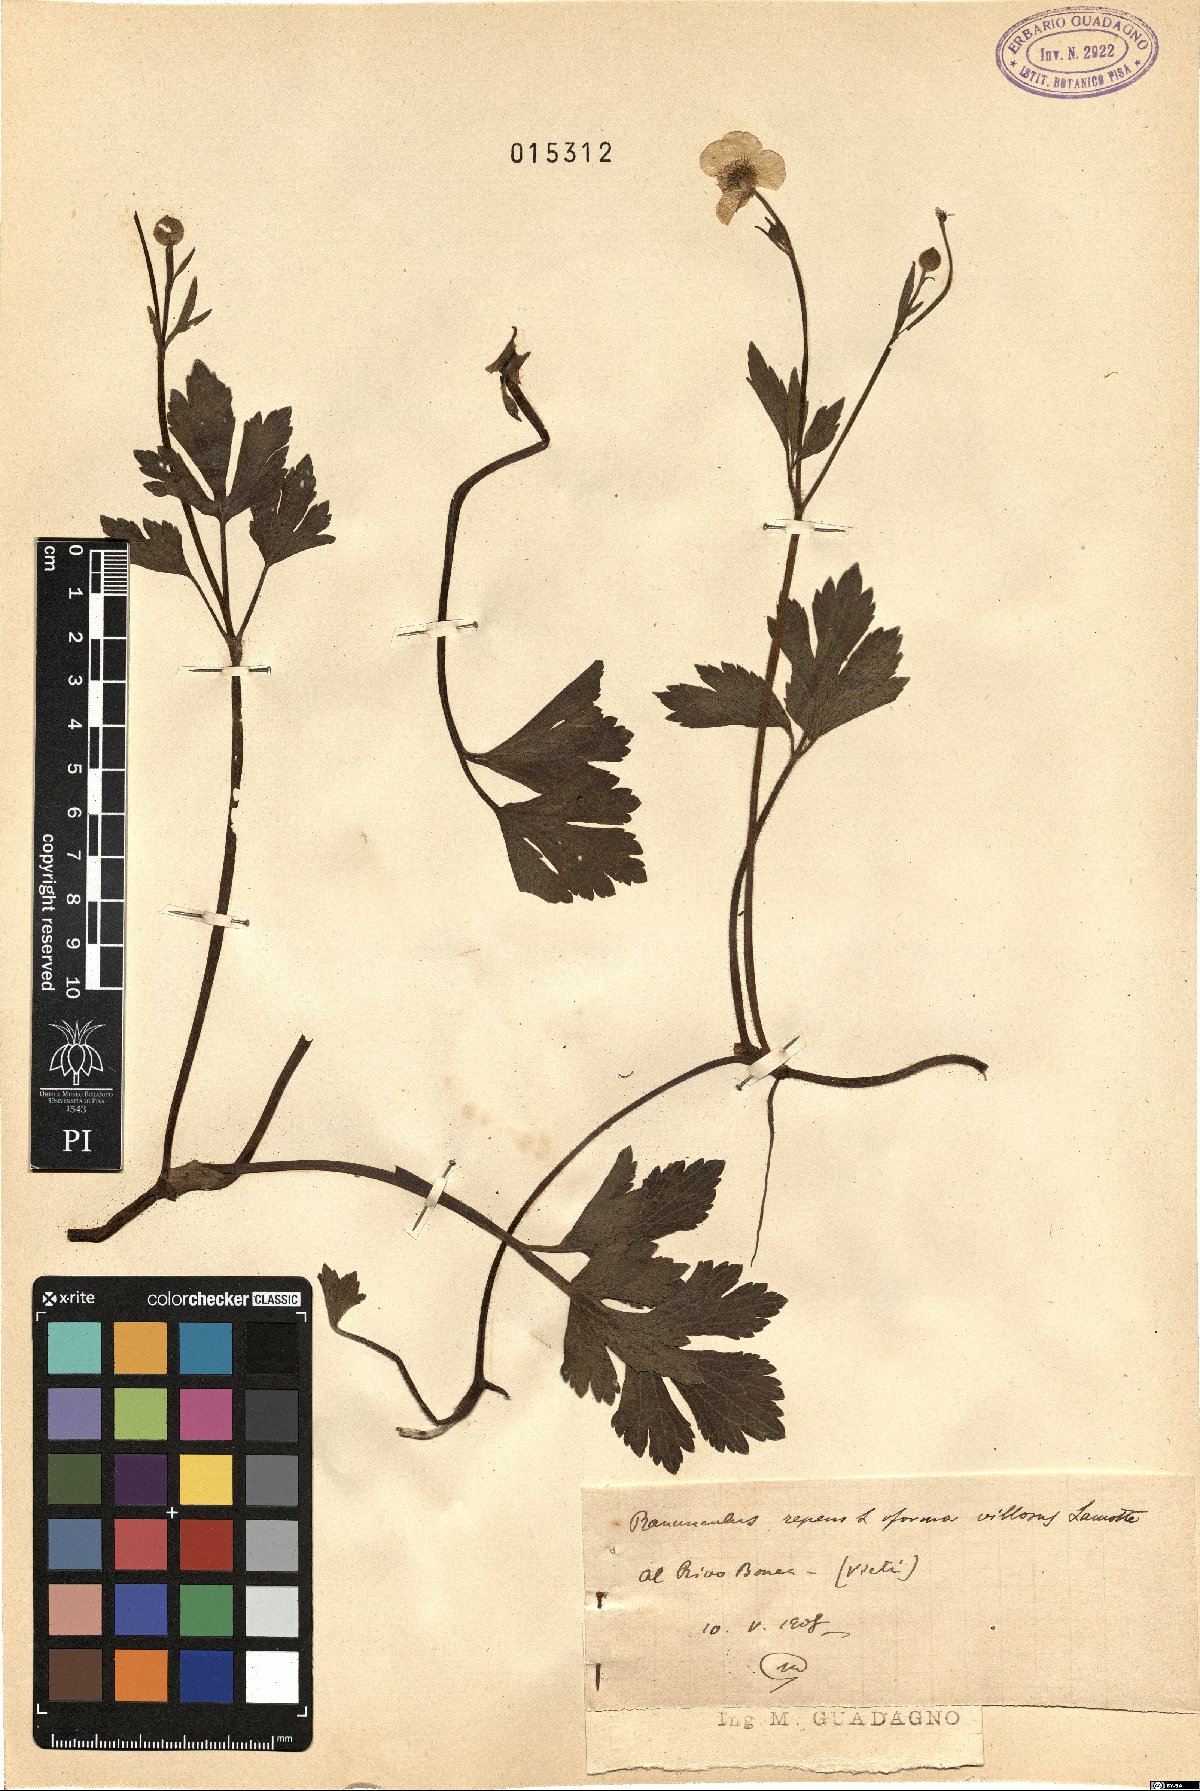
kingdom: Plantae
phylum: Tracheophyta
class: Magnoliopsida
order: Ranunculales
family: Ranunculaceae
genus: Ranunculus
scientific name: Ranunculus repens
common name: Creeping buttercup
